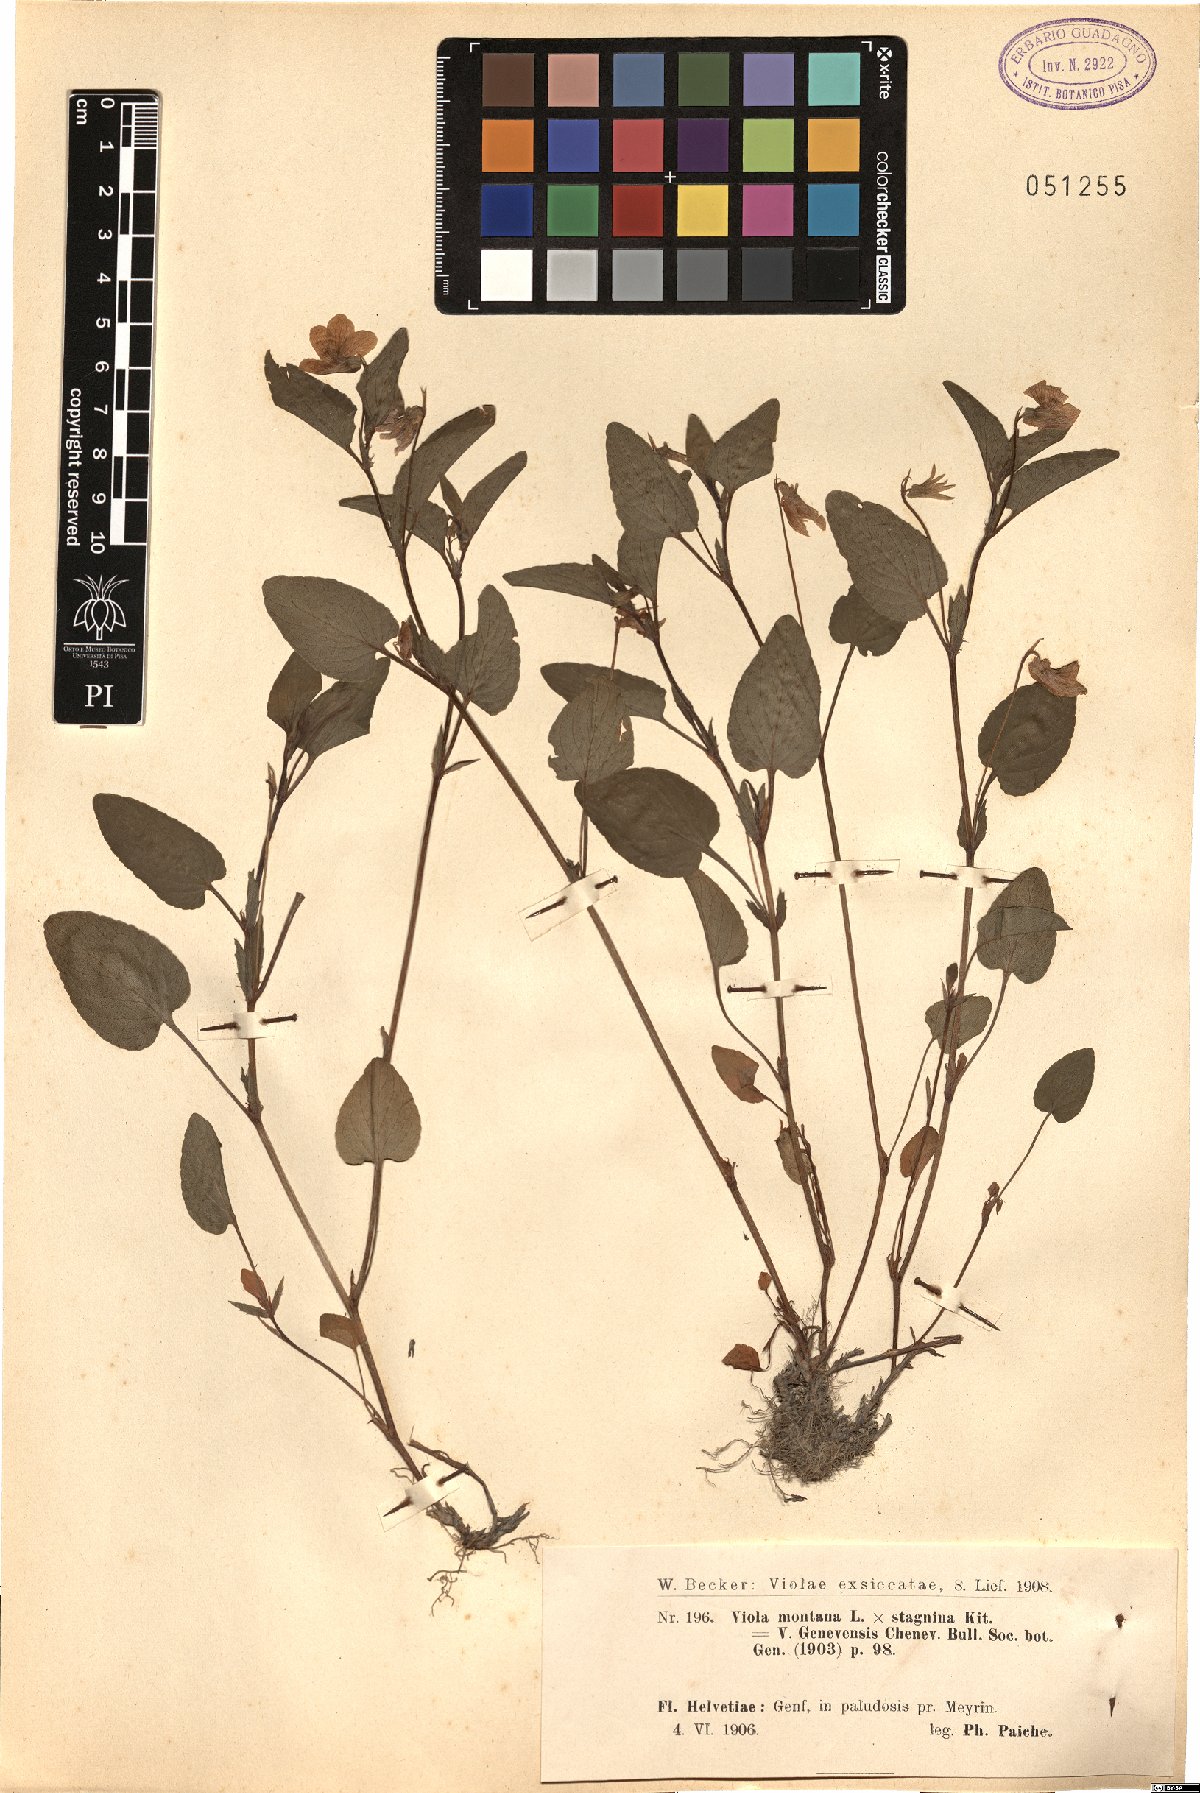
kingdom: Plantae
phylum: Tracheophyta
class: Magnoliopsida
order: Malpighiales
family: Violaceae
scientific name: Violaceae
